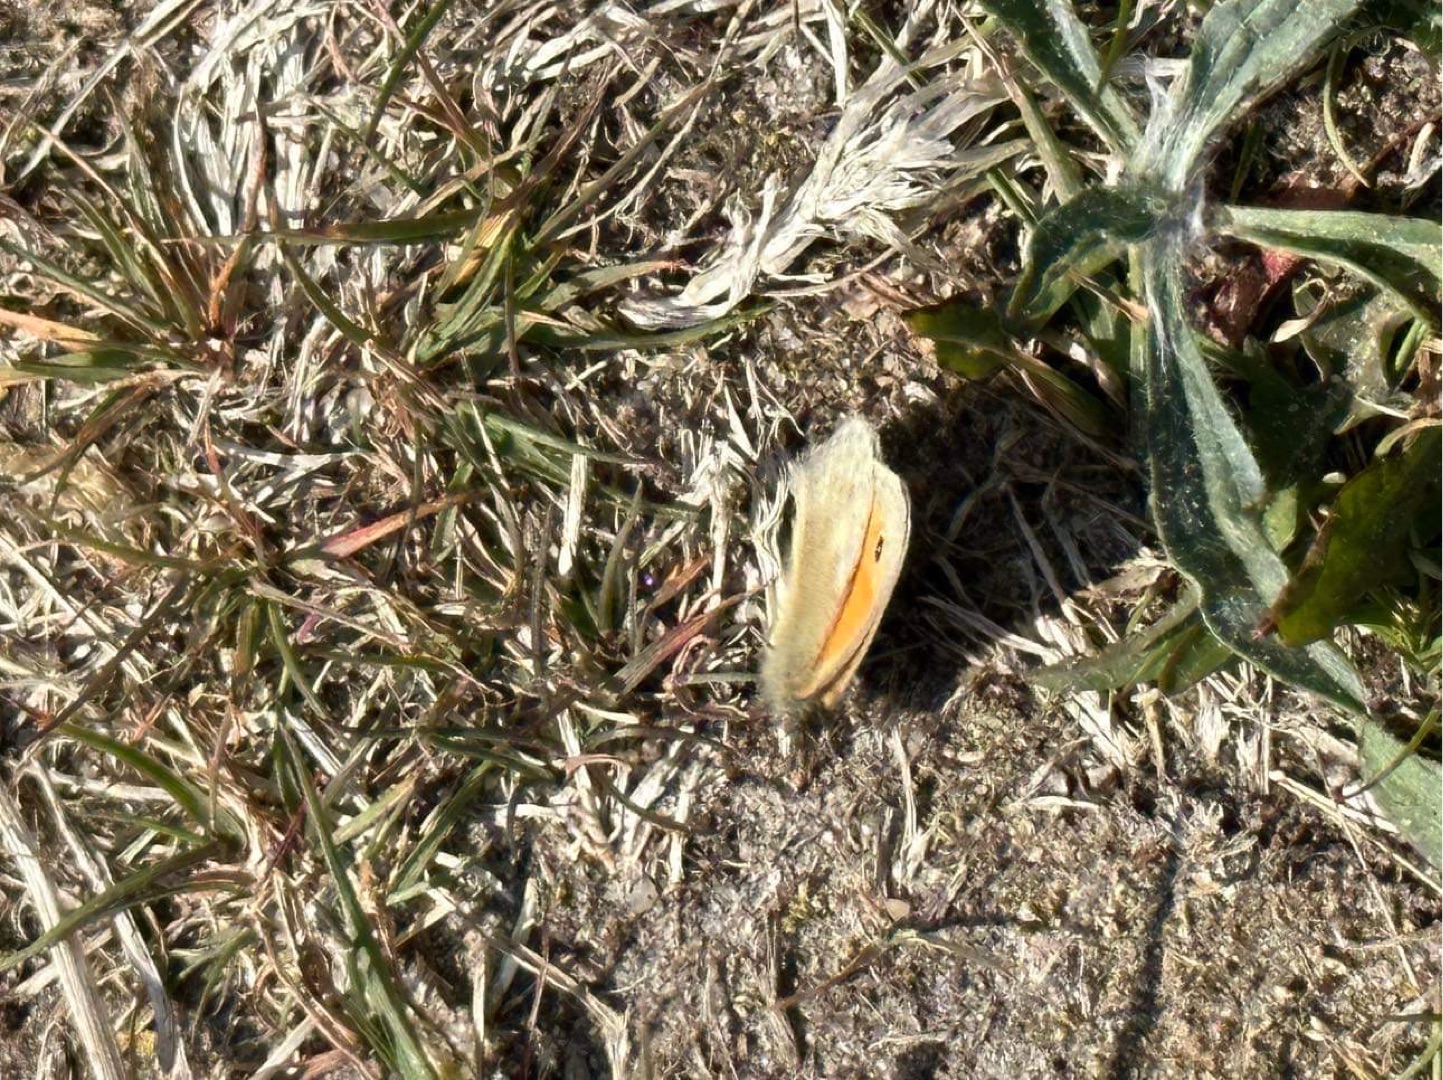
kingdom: Animalia
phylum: Arthropoda
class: Insecta
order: Lepidoptera
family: Nymphalidae
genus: Coenonympha
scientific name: Coenonympha pamphilus
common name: Okkergul randøje
